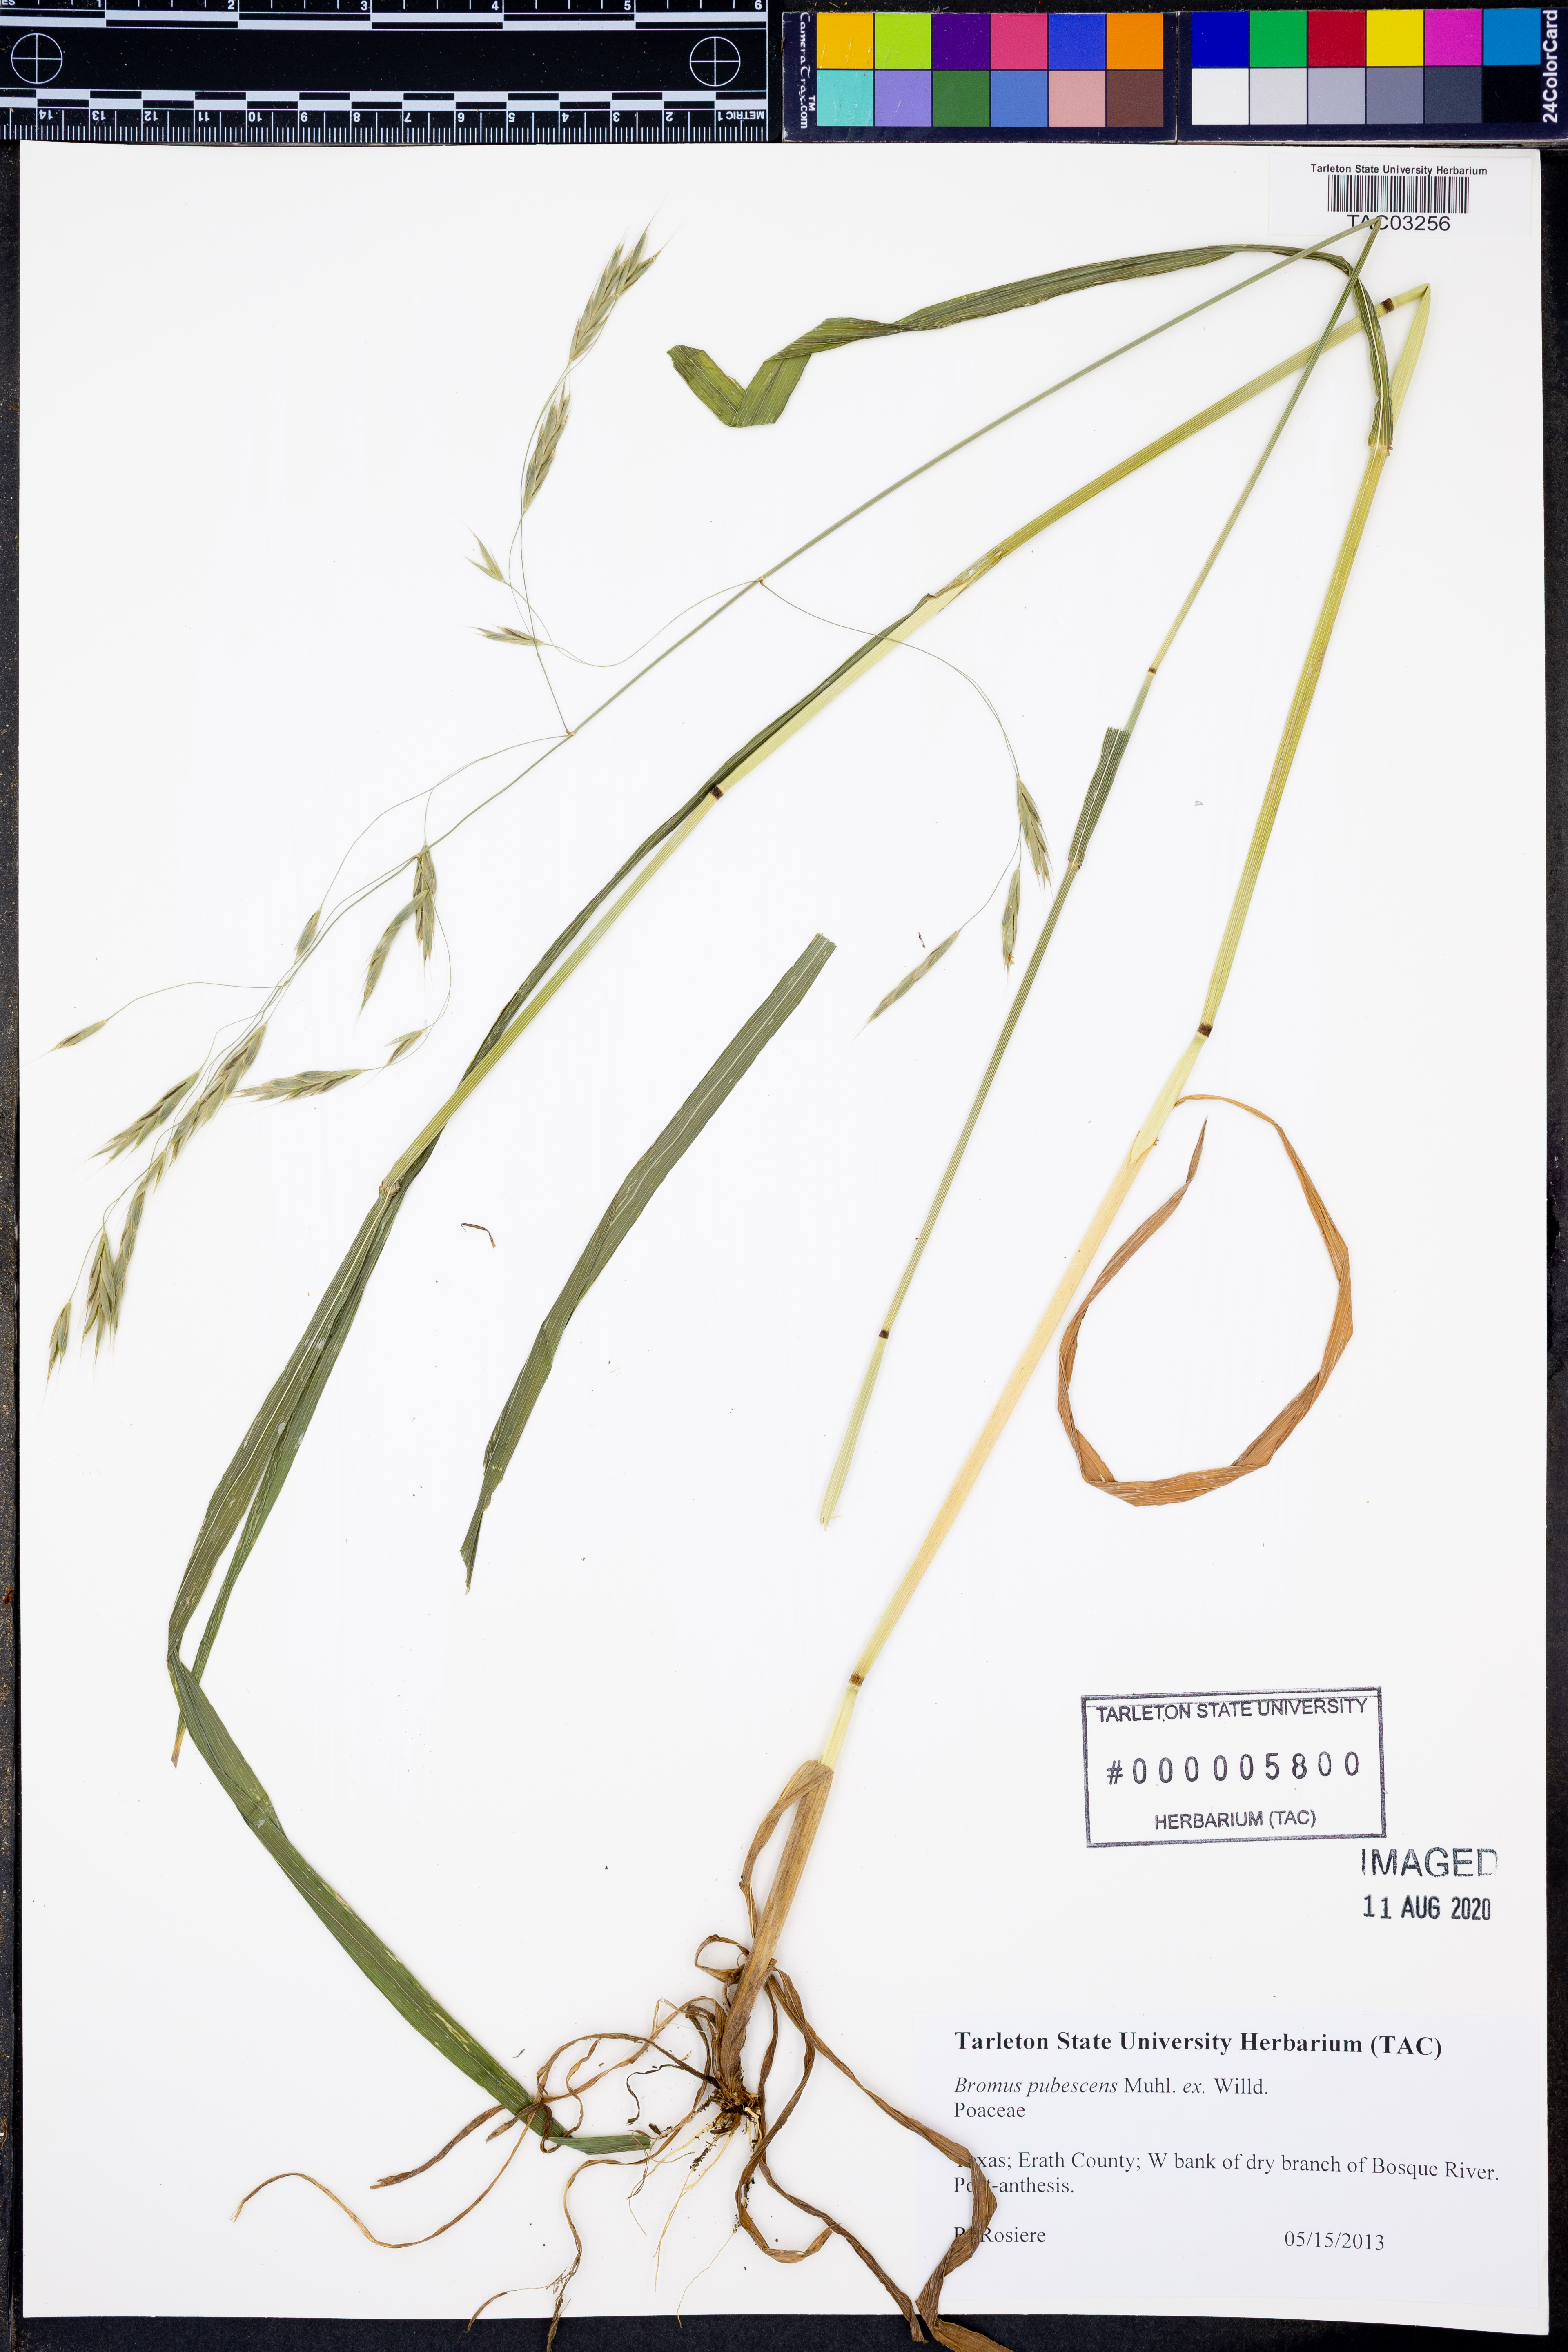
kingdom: Plantae
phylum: Tracheophyta
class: Liliopsida
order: Poales
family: Poaceae
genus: Bromus
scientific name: Bromus pubescens
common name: Hairy wood brome grass
